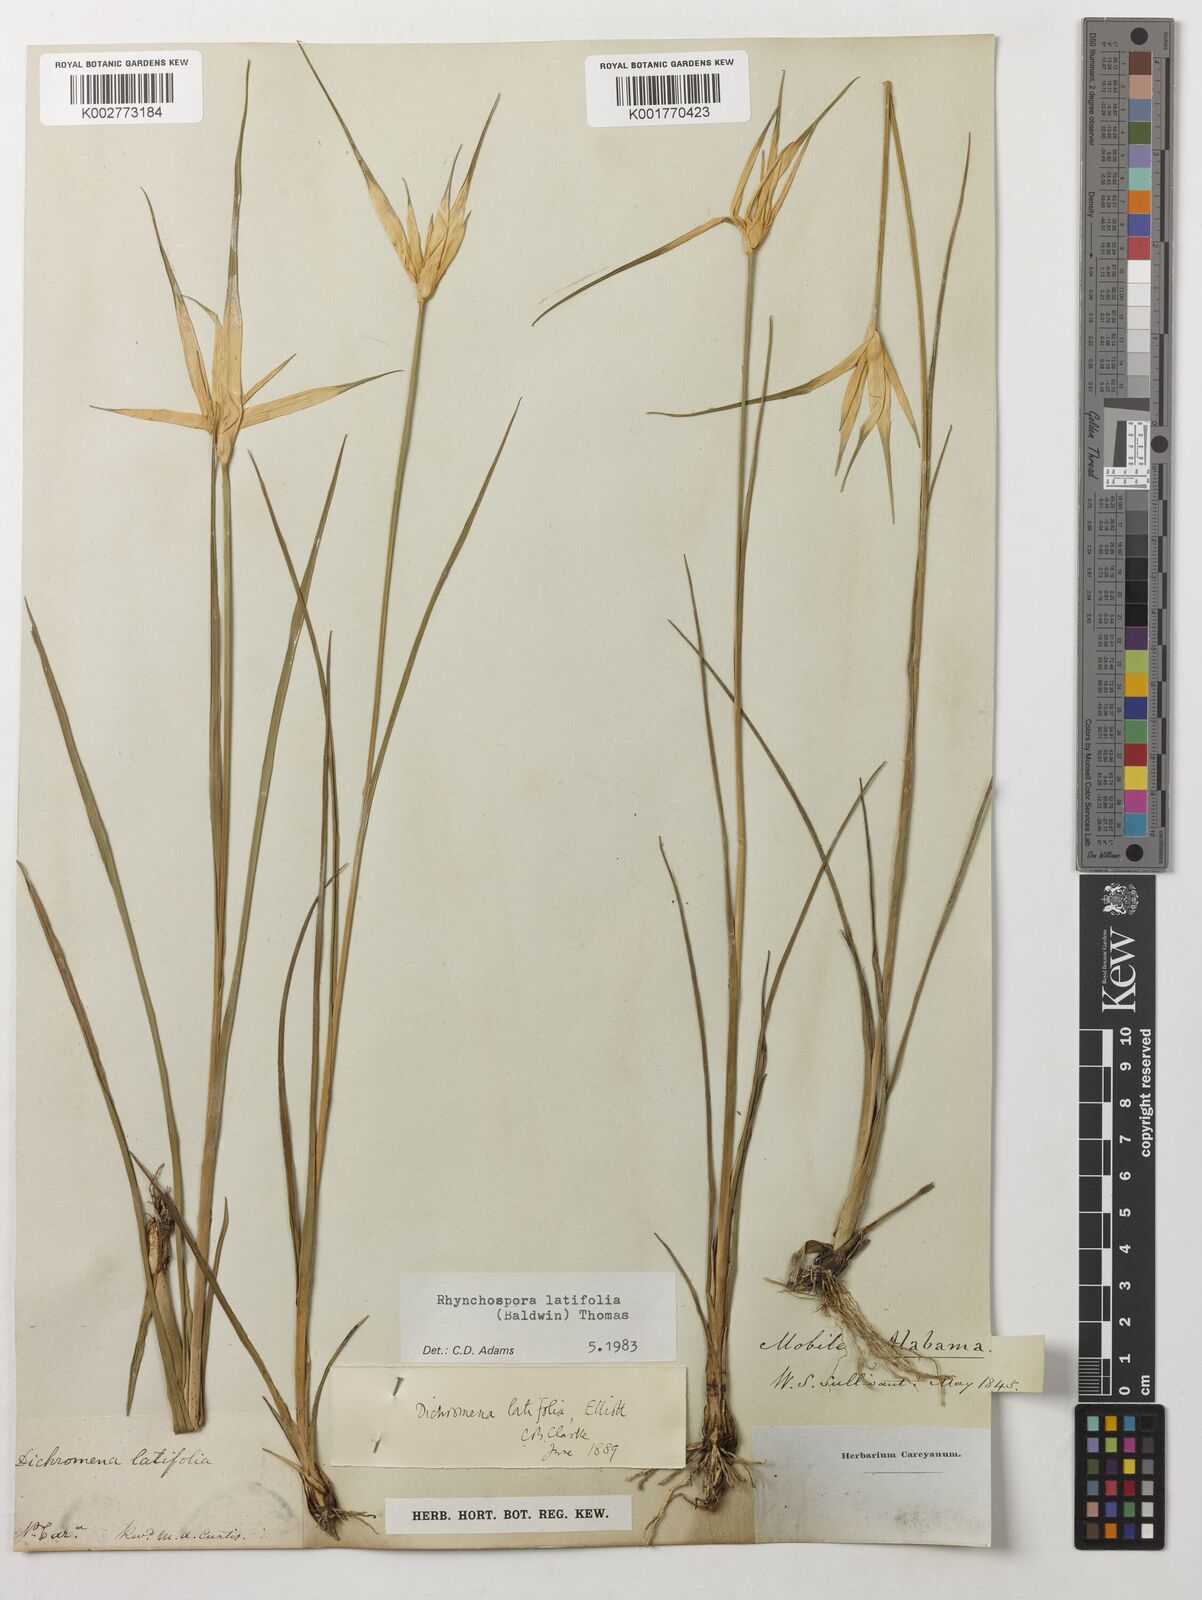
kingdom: Plantae
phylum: Tracheophyta
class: Liliopsida
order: Poales
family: Cyperaceae
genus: Rhynchospora
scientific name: Rhynchospora latifolia
